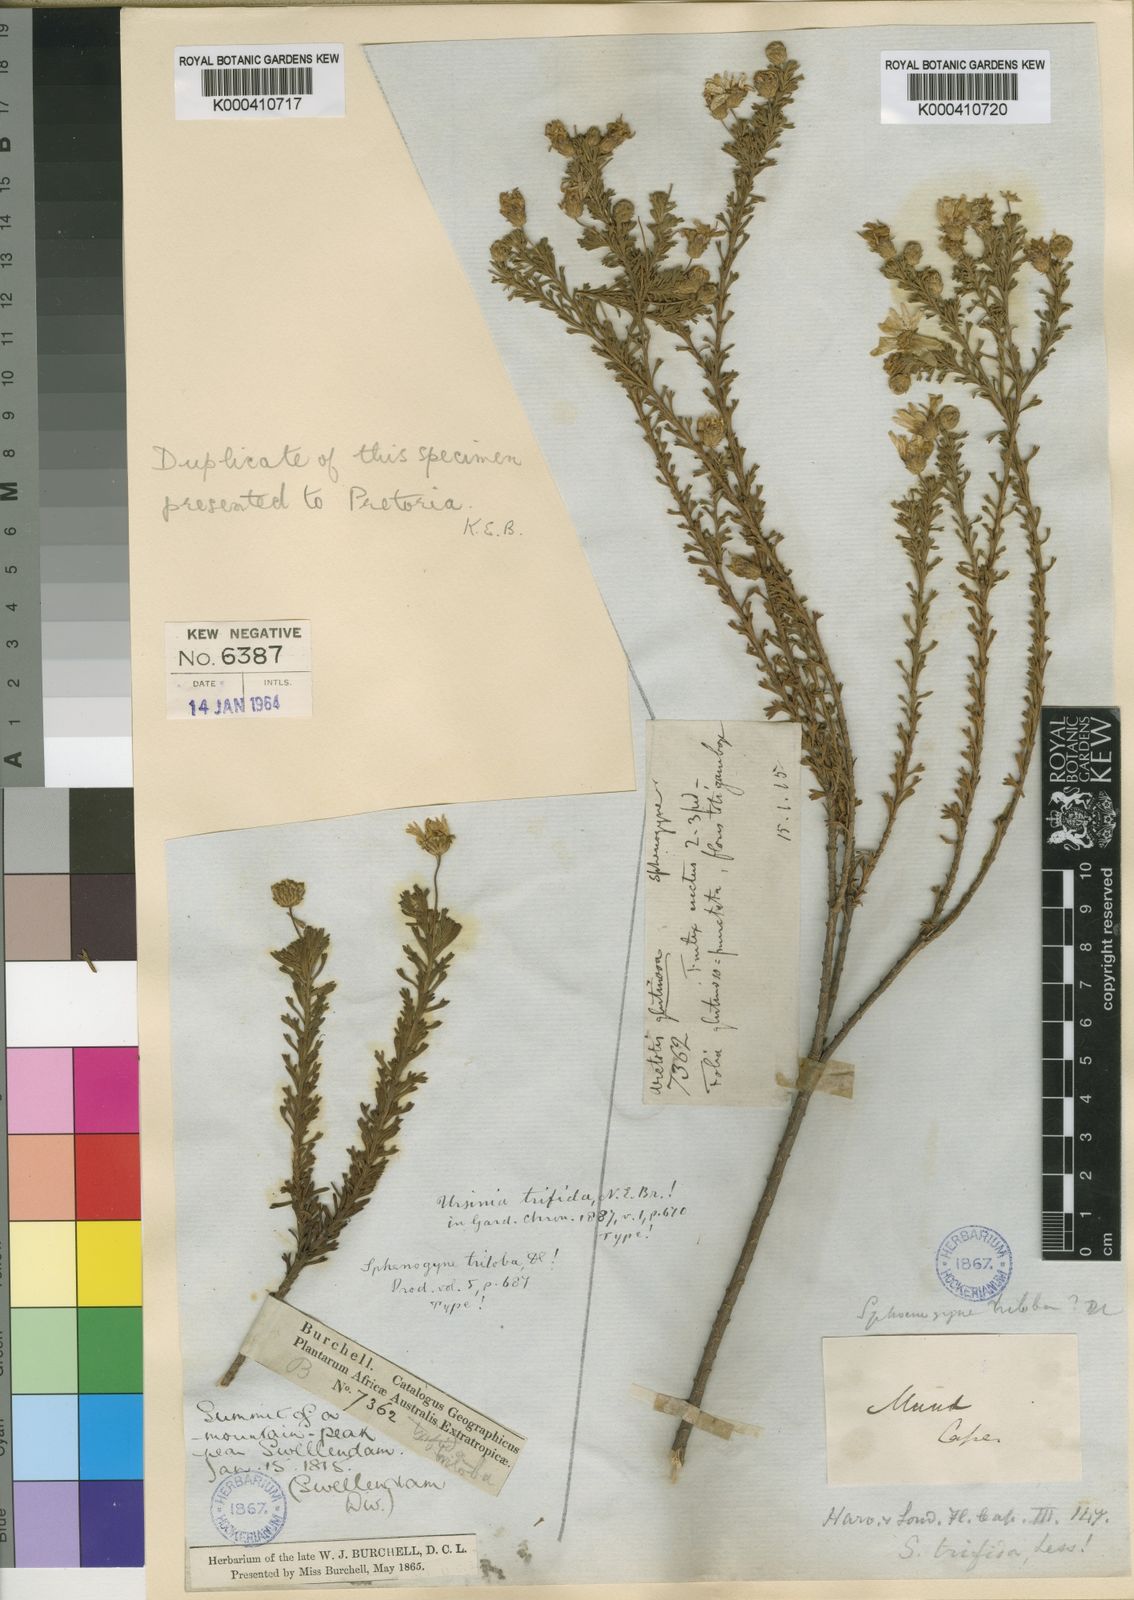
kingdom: Plantae
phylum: Tracheophyta
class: Magnoliopsida
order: Asterales
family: Asteraceae
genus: Ursinia
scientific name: Ursinia trifida
